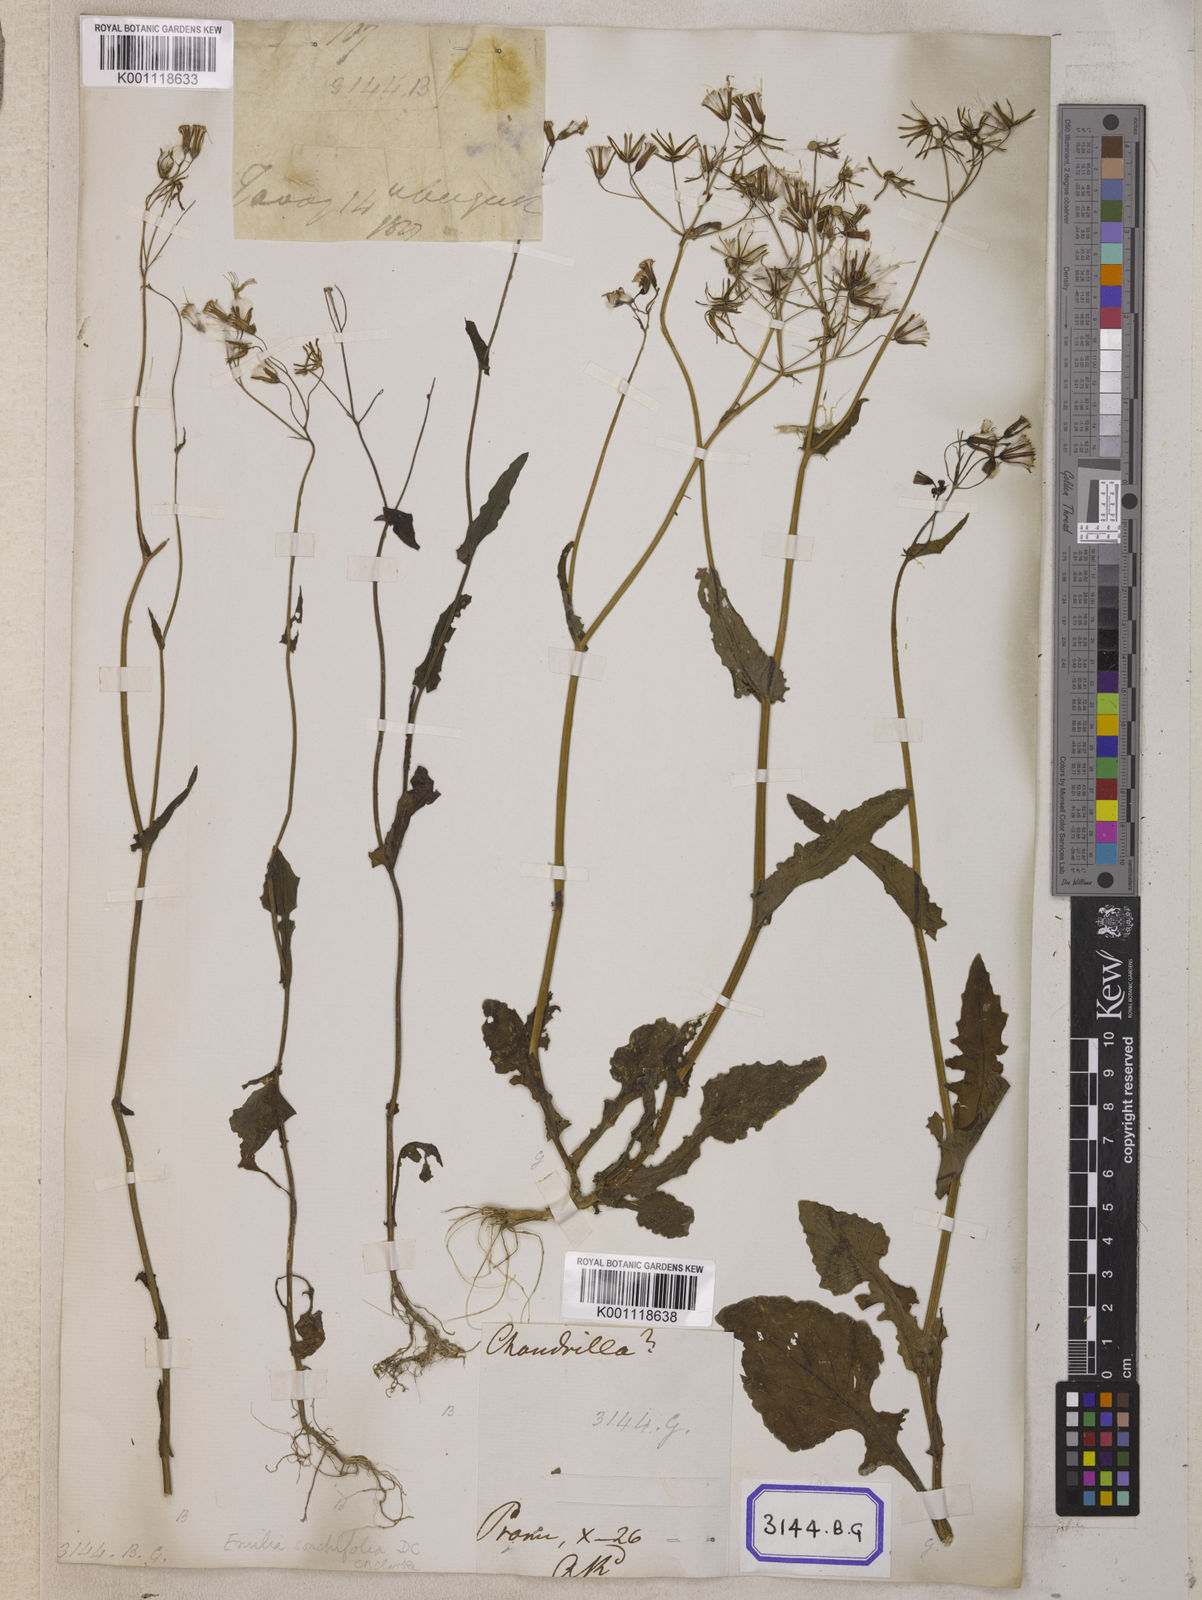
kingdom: Plantae
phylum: Tracheophyta
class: Magnoliopsida
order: Asterales
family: Asteraceae
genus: Launaea
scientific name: Launaea remotiflora
